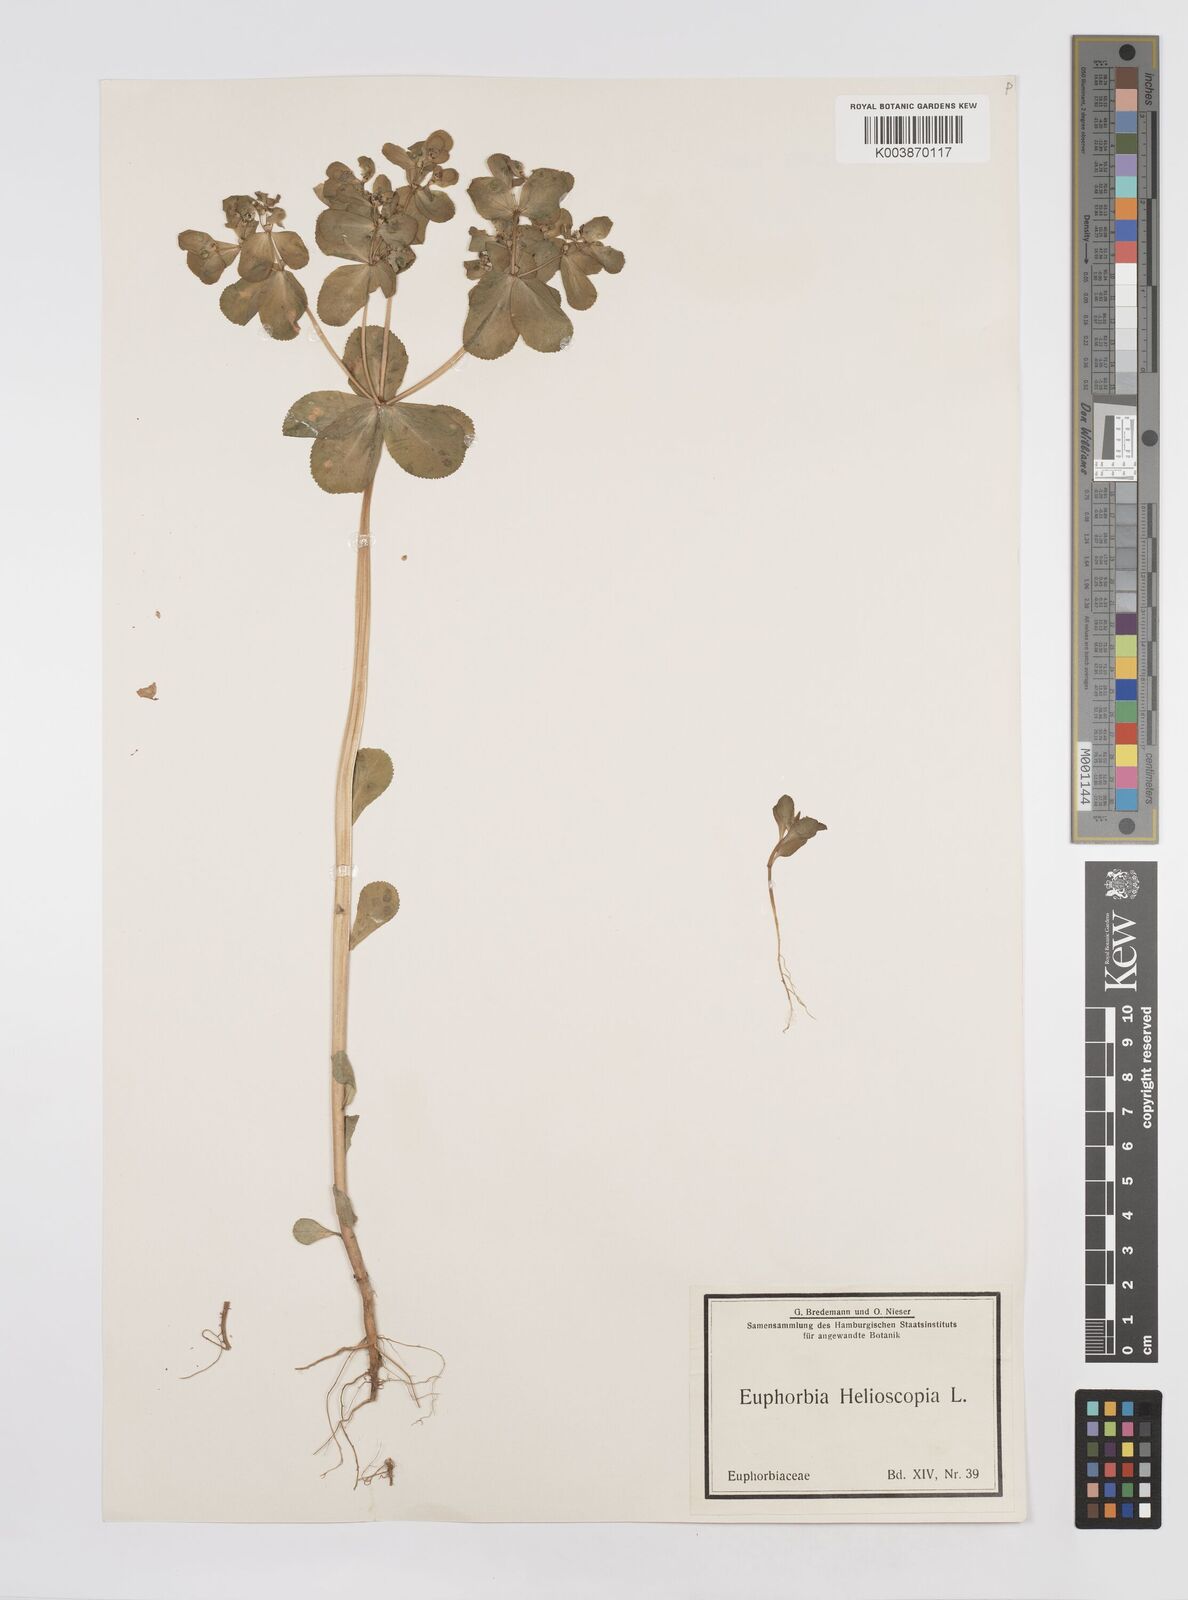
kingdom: Plantae
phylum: Tracheophyta
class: Magnoliopsida
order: Malpighiales
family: Euphorbiaceae
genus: Euphorbia
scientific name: Euphorbia helioscopia
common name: Sun spurge
